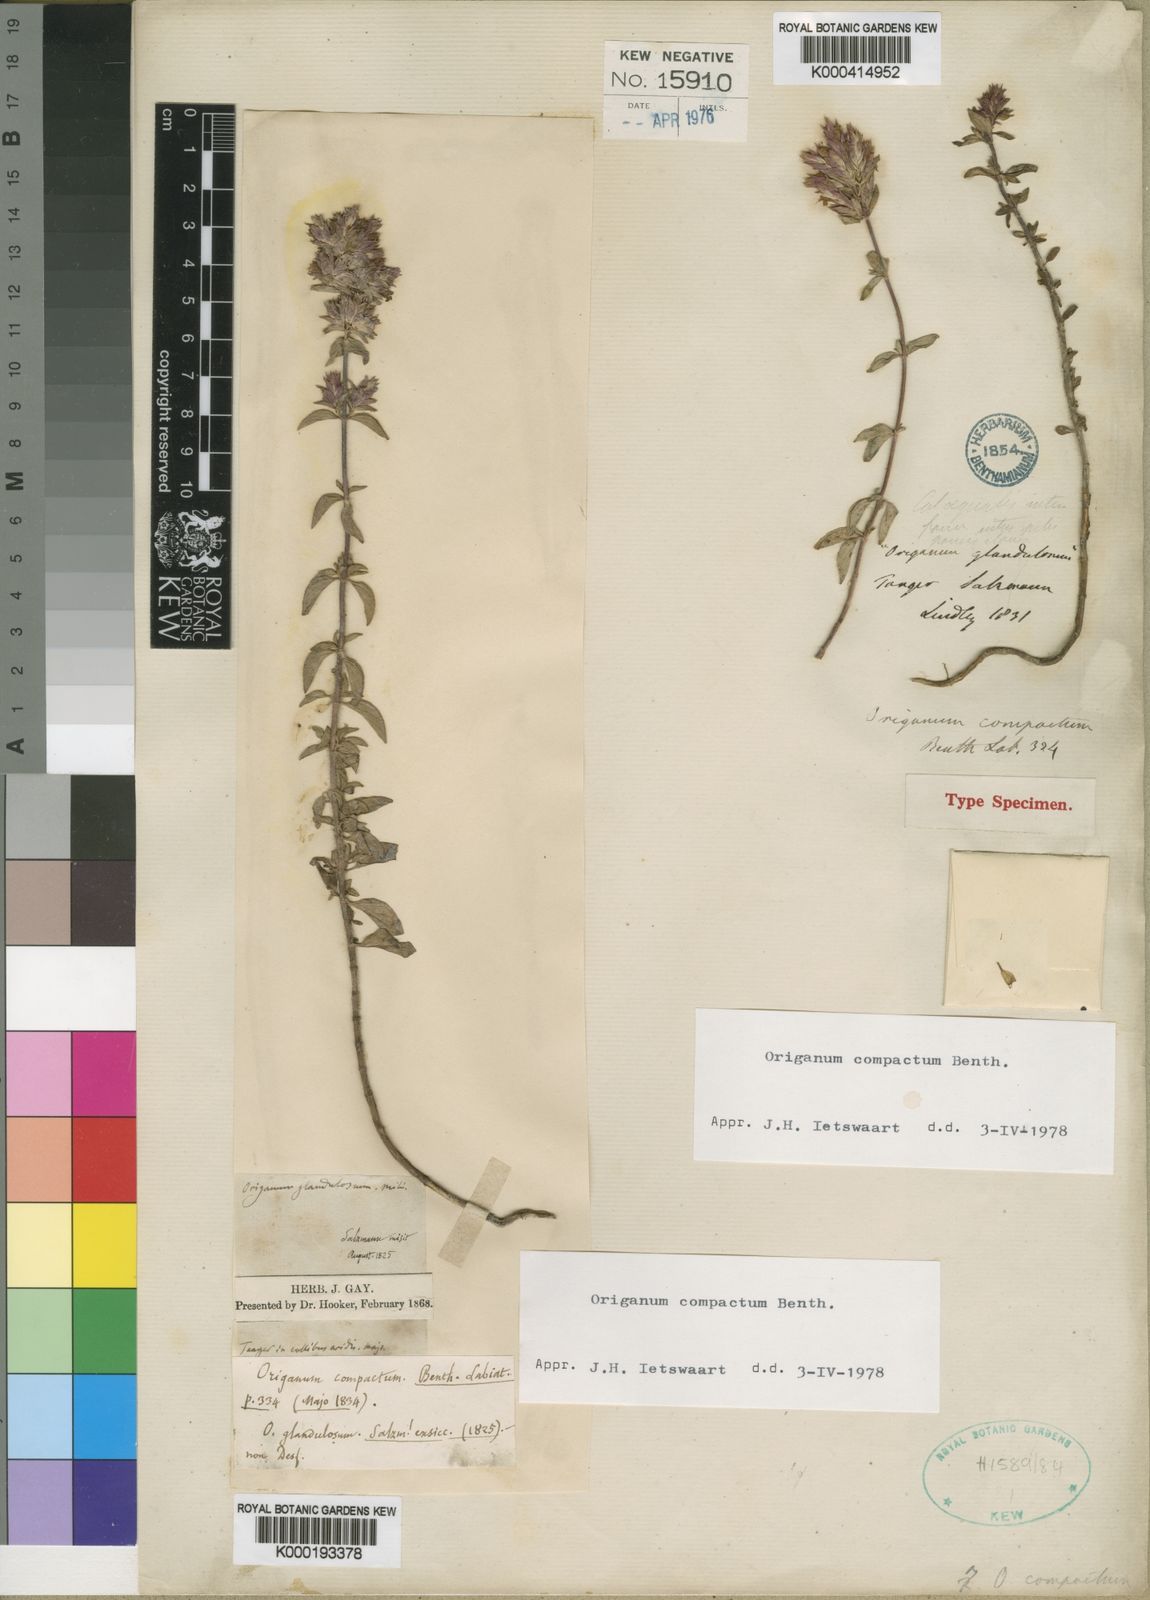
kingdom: Plantae
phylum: Tracheophyta
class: Magnoliopsida
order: Lamiales
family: Lamiaceae
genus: Origanum
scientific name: Origanum compactum
